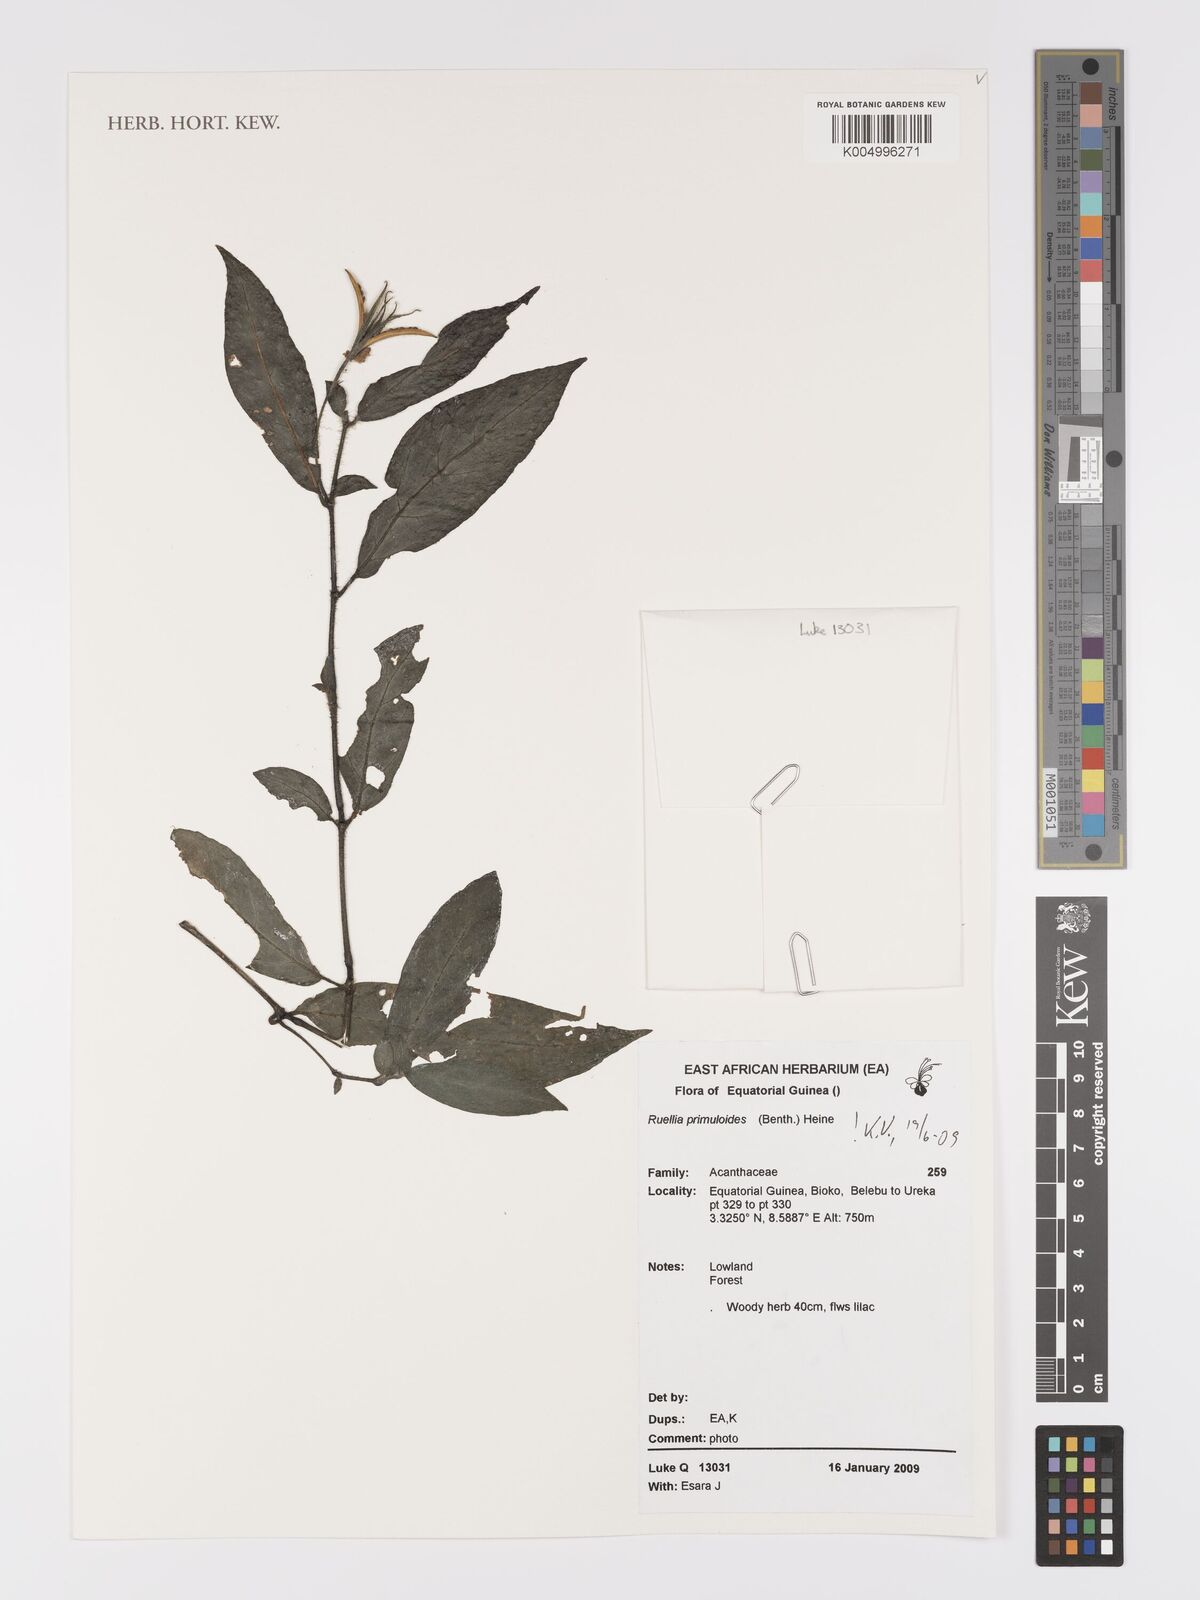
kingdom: Plantae
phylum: Tracheophyta
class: Magnoliopsida
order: Lamiales
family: Acanthaceae
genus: Ruellia
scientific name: Ruellia primuloides
